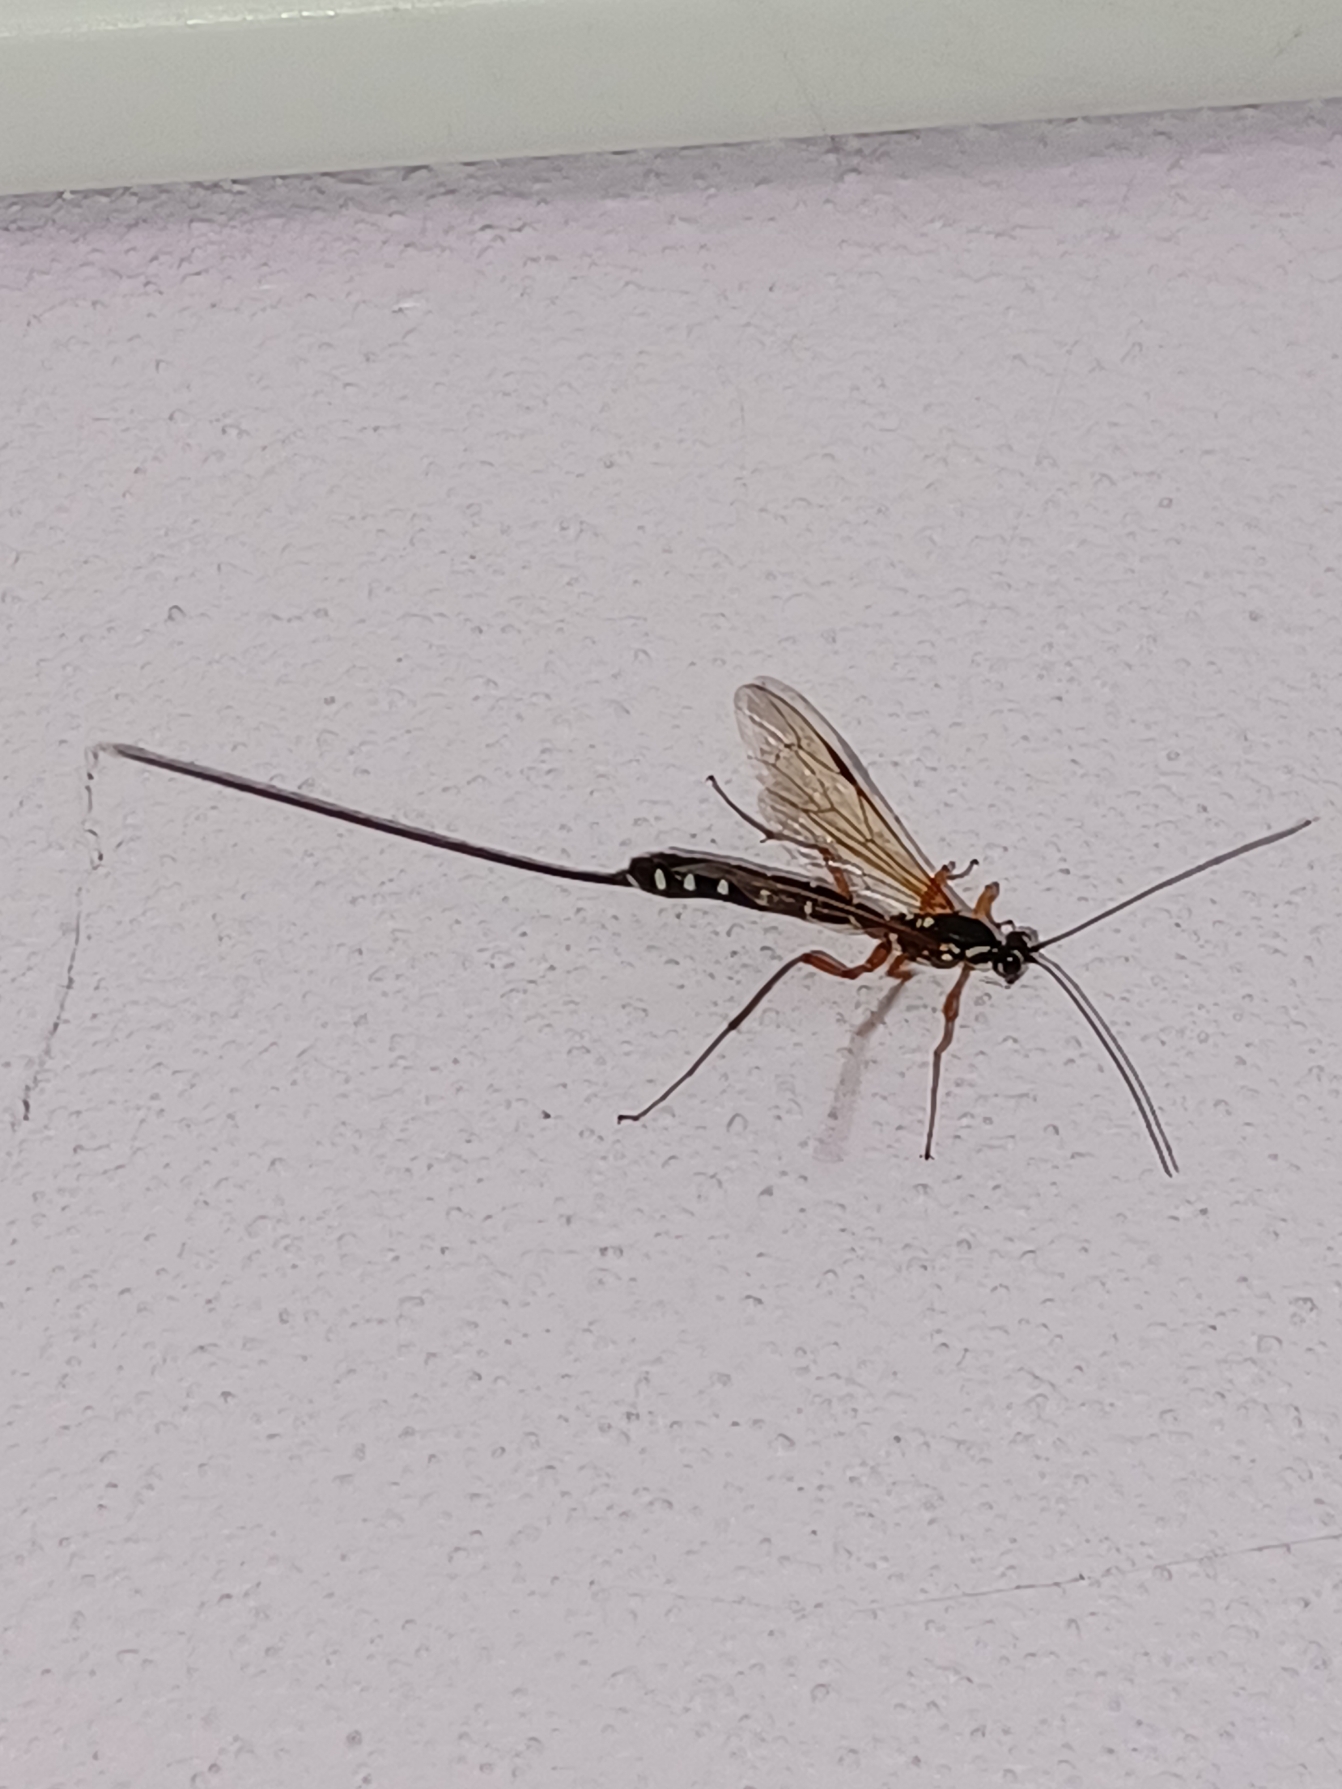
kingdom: Animalia
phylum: Arthropoda
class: Insecta
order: Hymenoptera
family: Ichneumonidae
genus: Rhyssa
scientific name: Rhyssa persuasoria
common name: Sabelhveps
